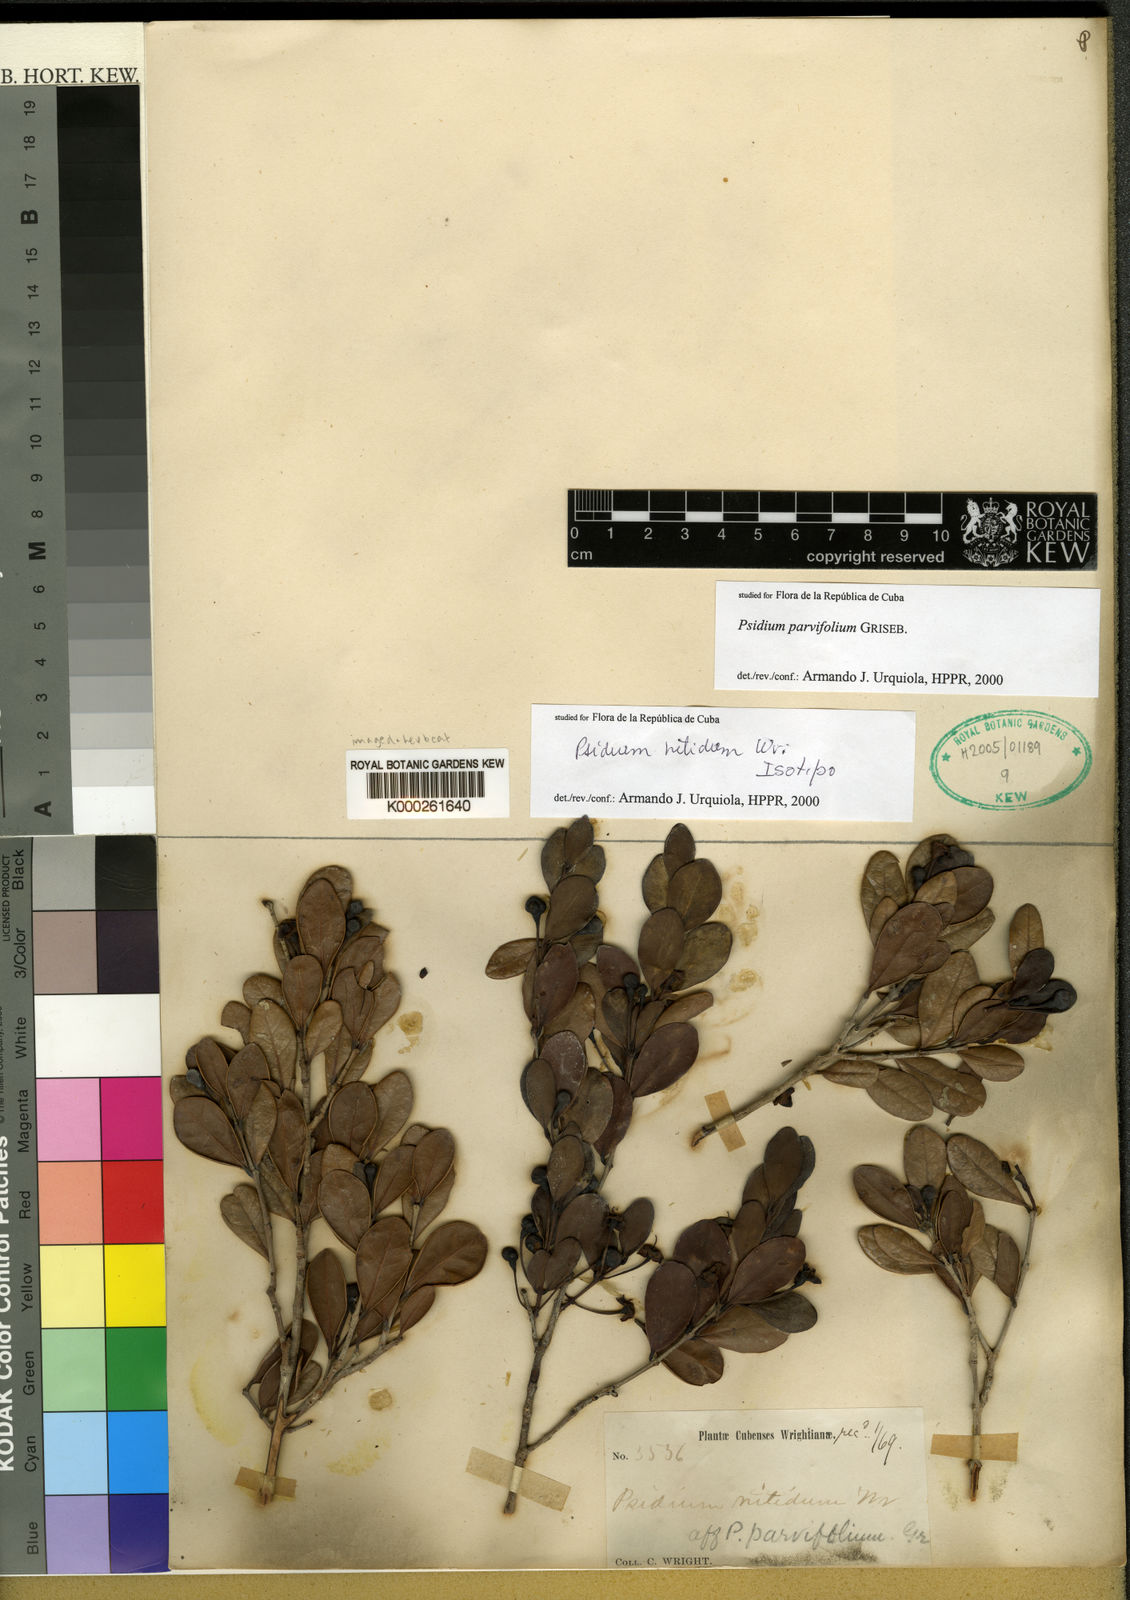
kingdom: Plantae
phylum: Tracheophyta
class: Magnoliopsida
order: Myrtales
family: Myrtaceae
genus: Psidium
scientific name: Psidium
